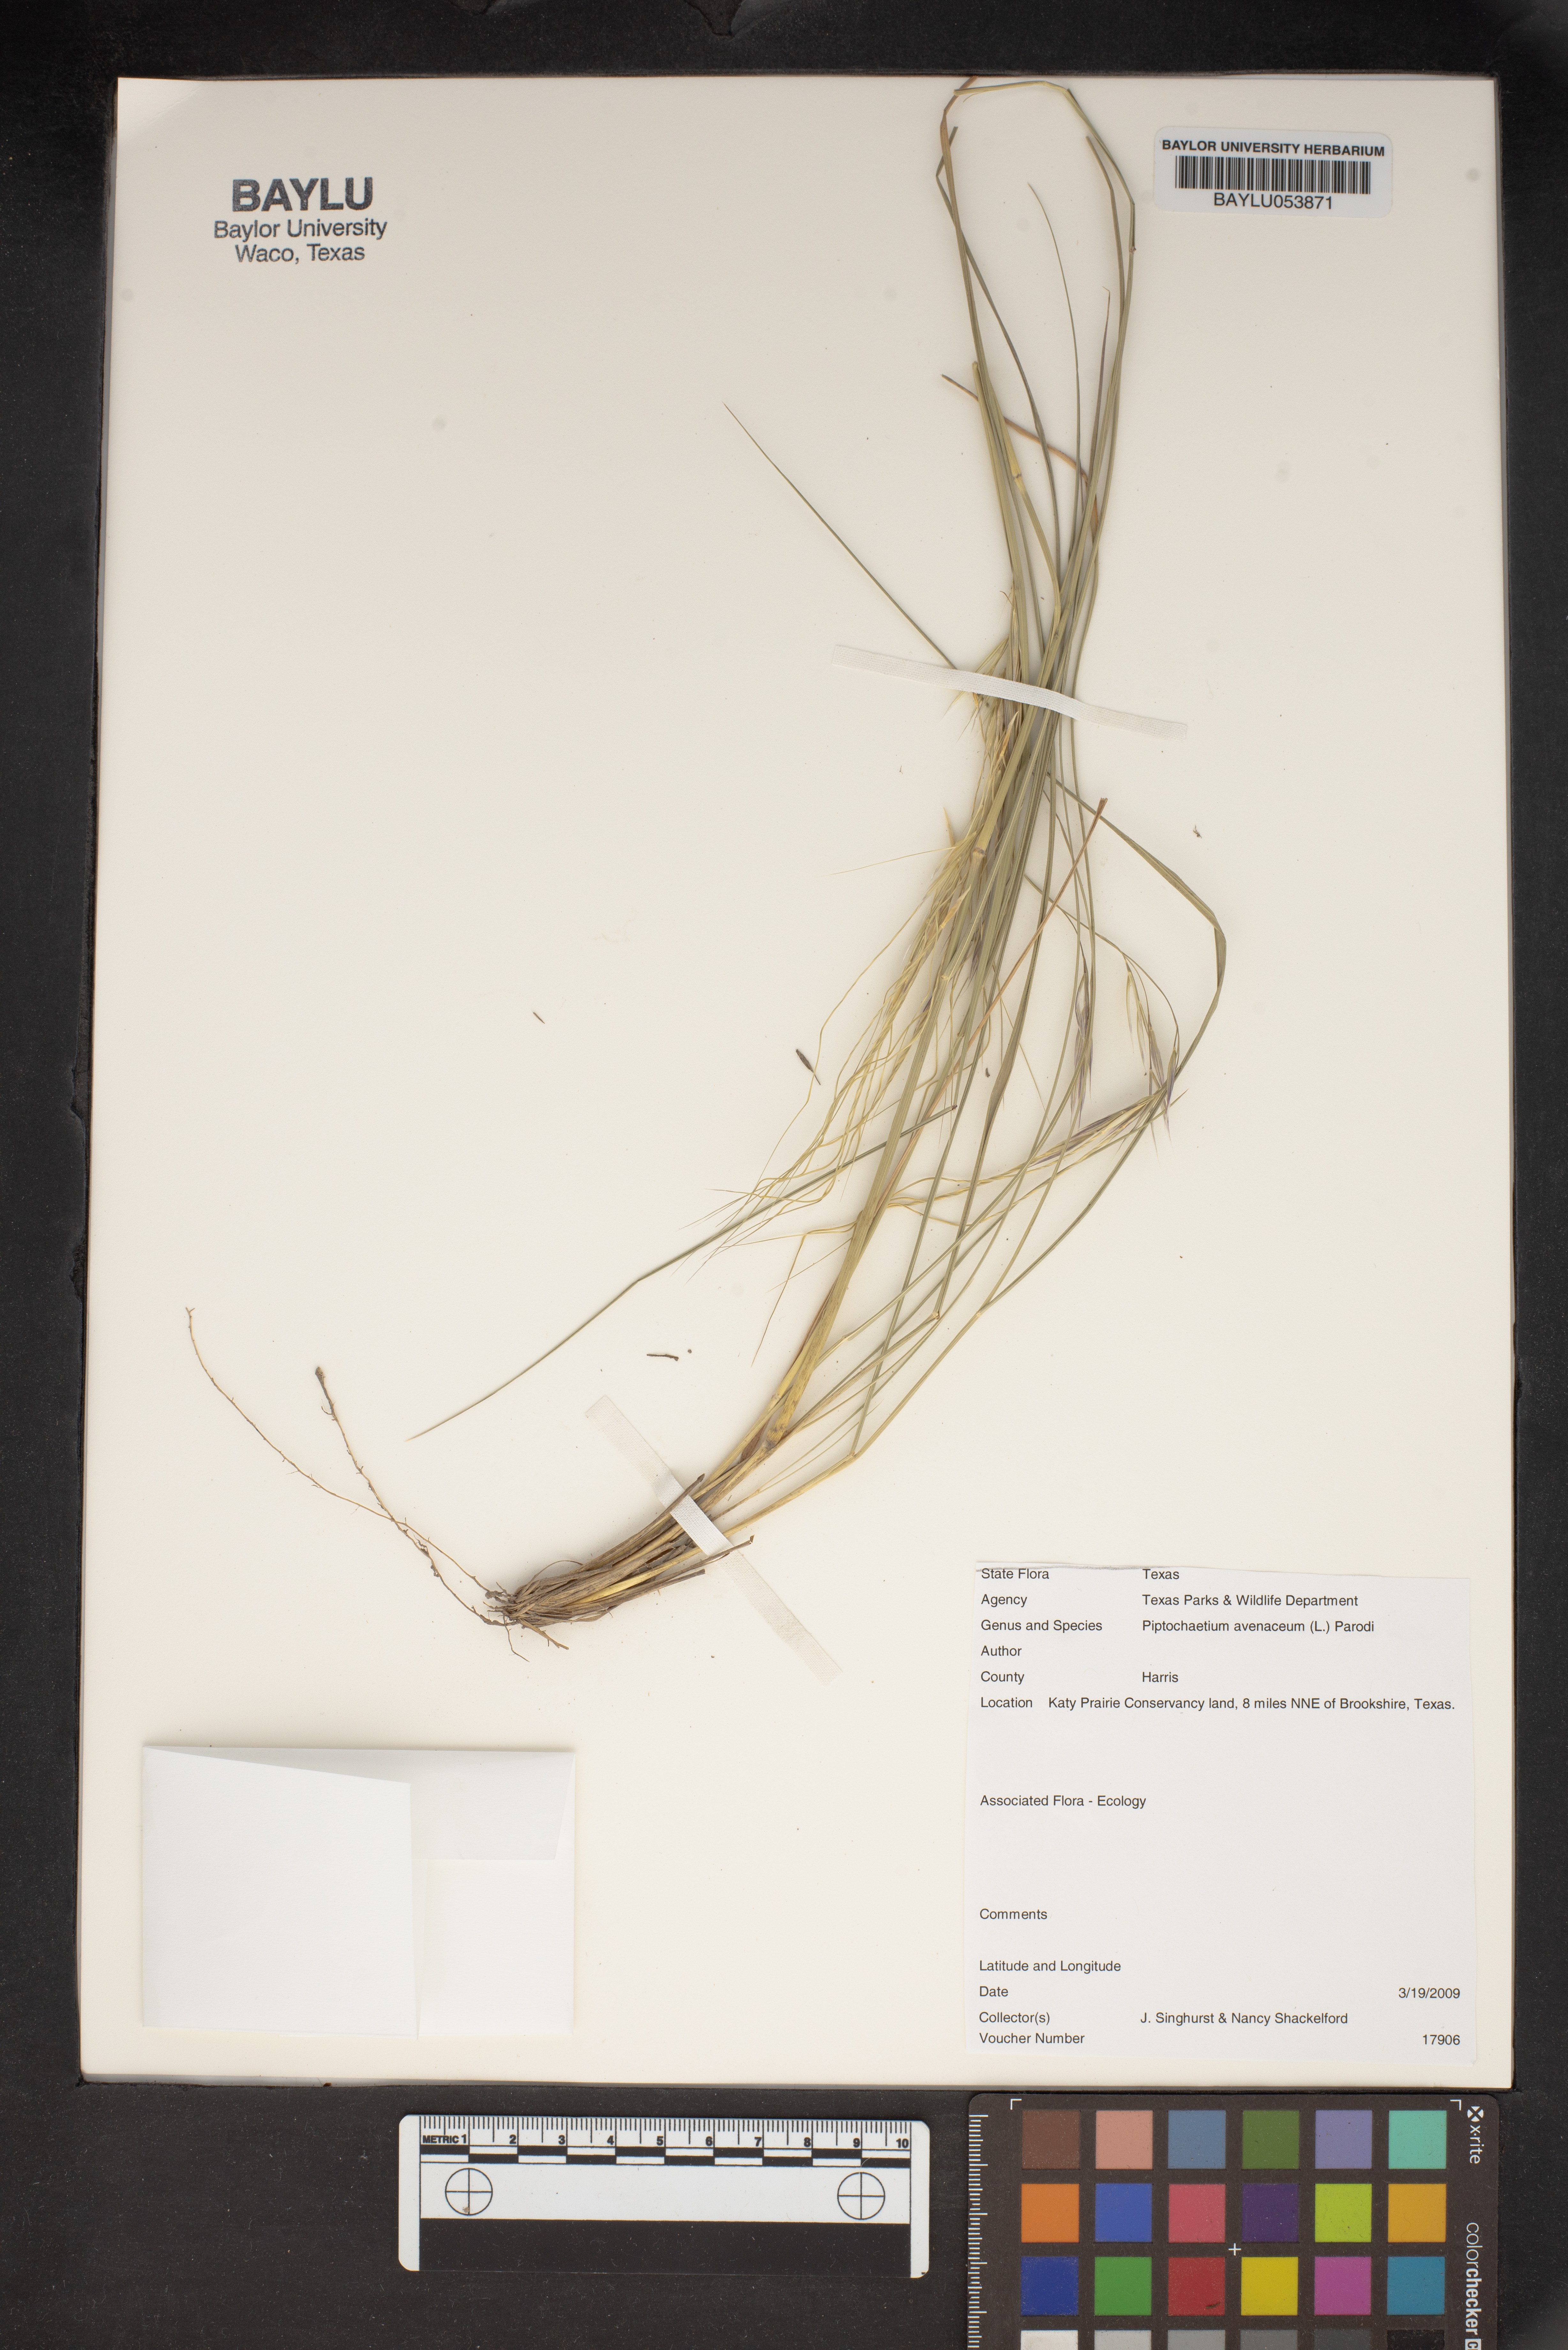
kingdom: Plantae
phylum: Tracheophyta
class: Liliopsida
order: Poales
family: Poaceae
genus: Piptochaetium
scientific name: Piptochaetium avenaceum
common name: Black bunchgrass
